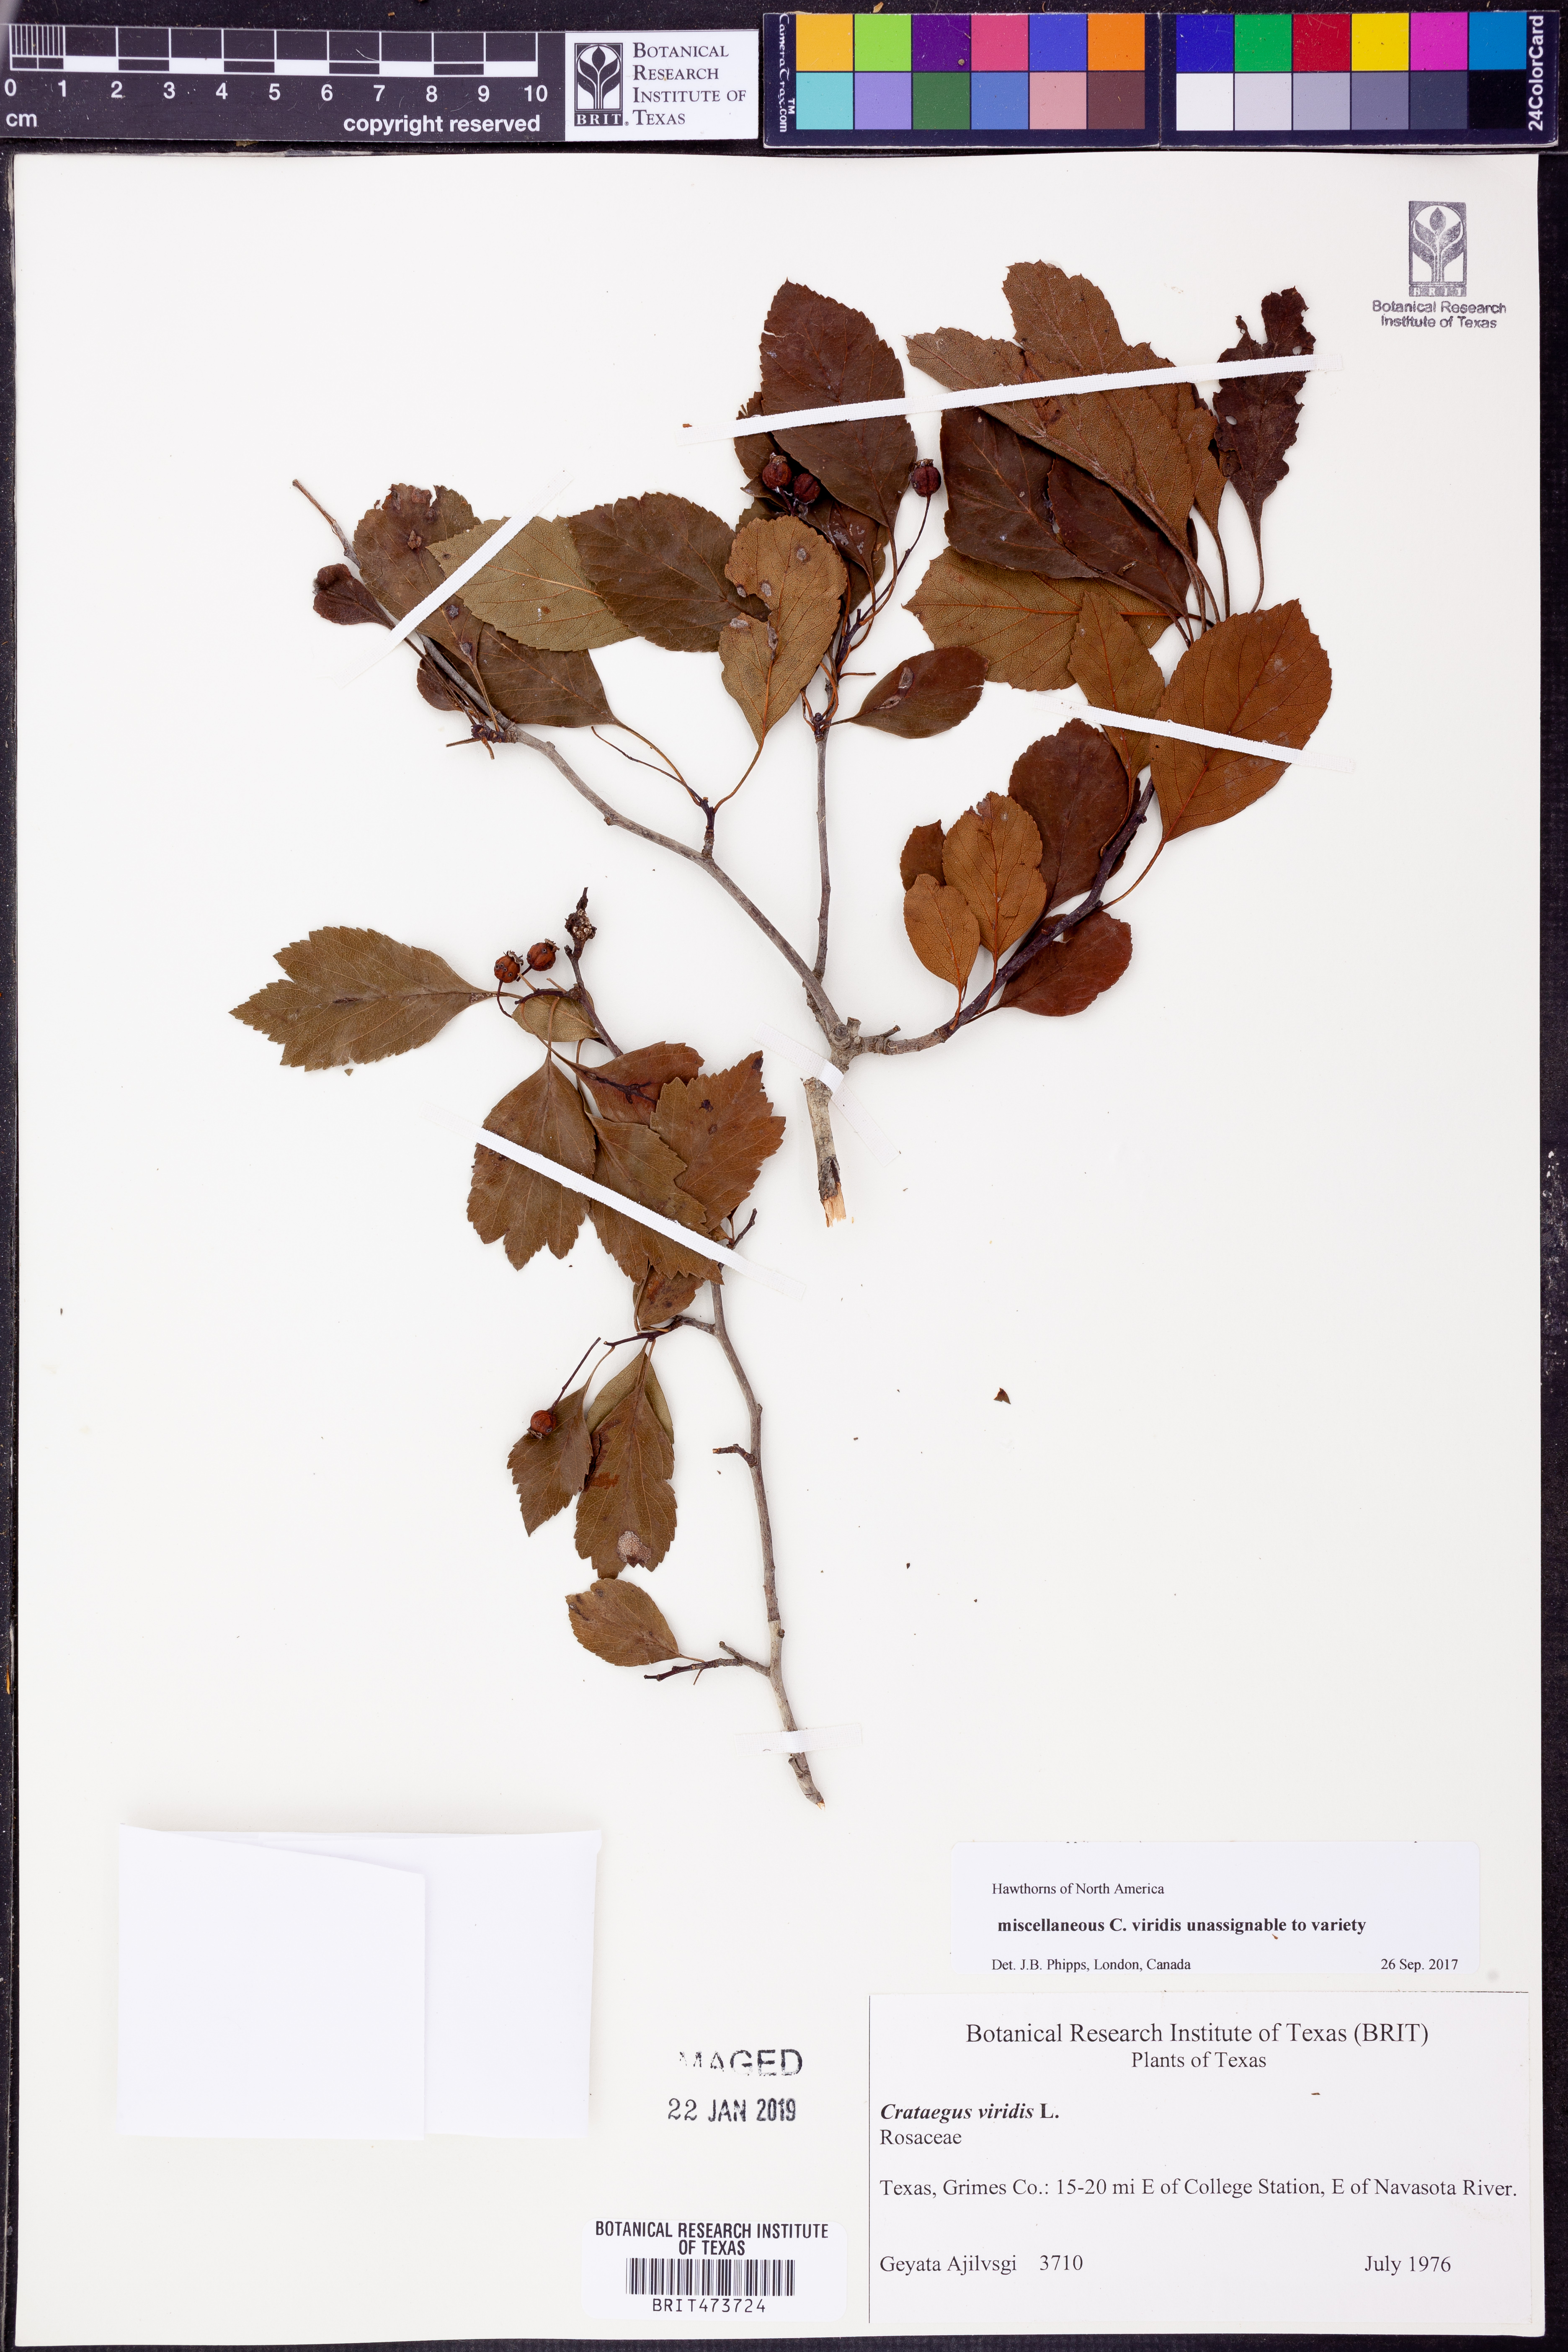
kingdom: Plantae
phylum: Tracheophyta
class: Magnoliopsida
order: Rosales
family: Rosaceae
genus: Crataegus
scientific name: Crataegus viridis
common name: Southernthorn
